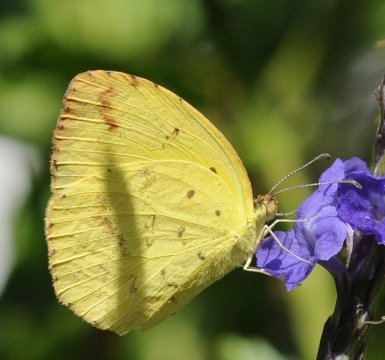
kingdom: Animalia
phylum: Arthropoda
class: Insecta
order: Lepidoptera
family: Pieridae
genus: Eurema
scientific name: Eurema desjardinsii
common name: Angled Grass Yellow
